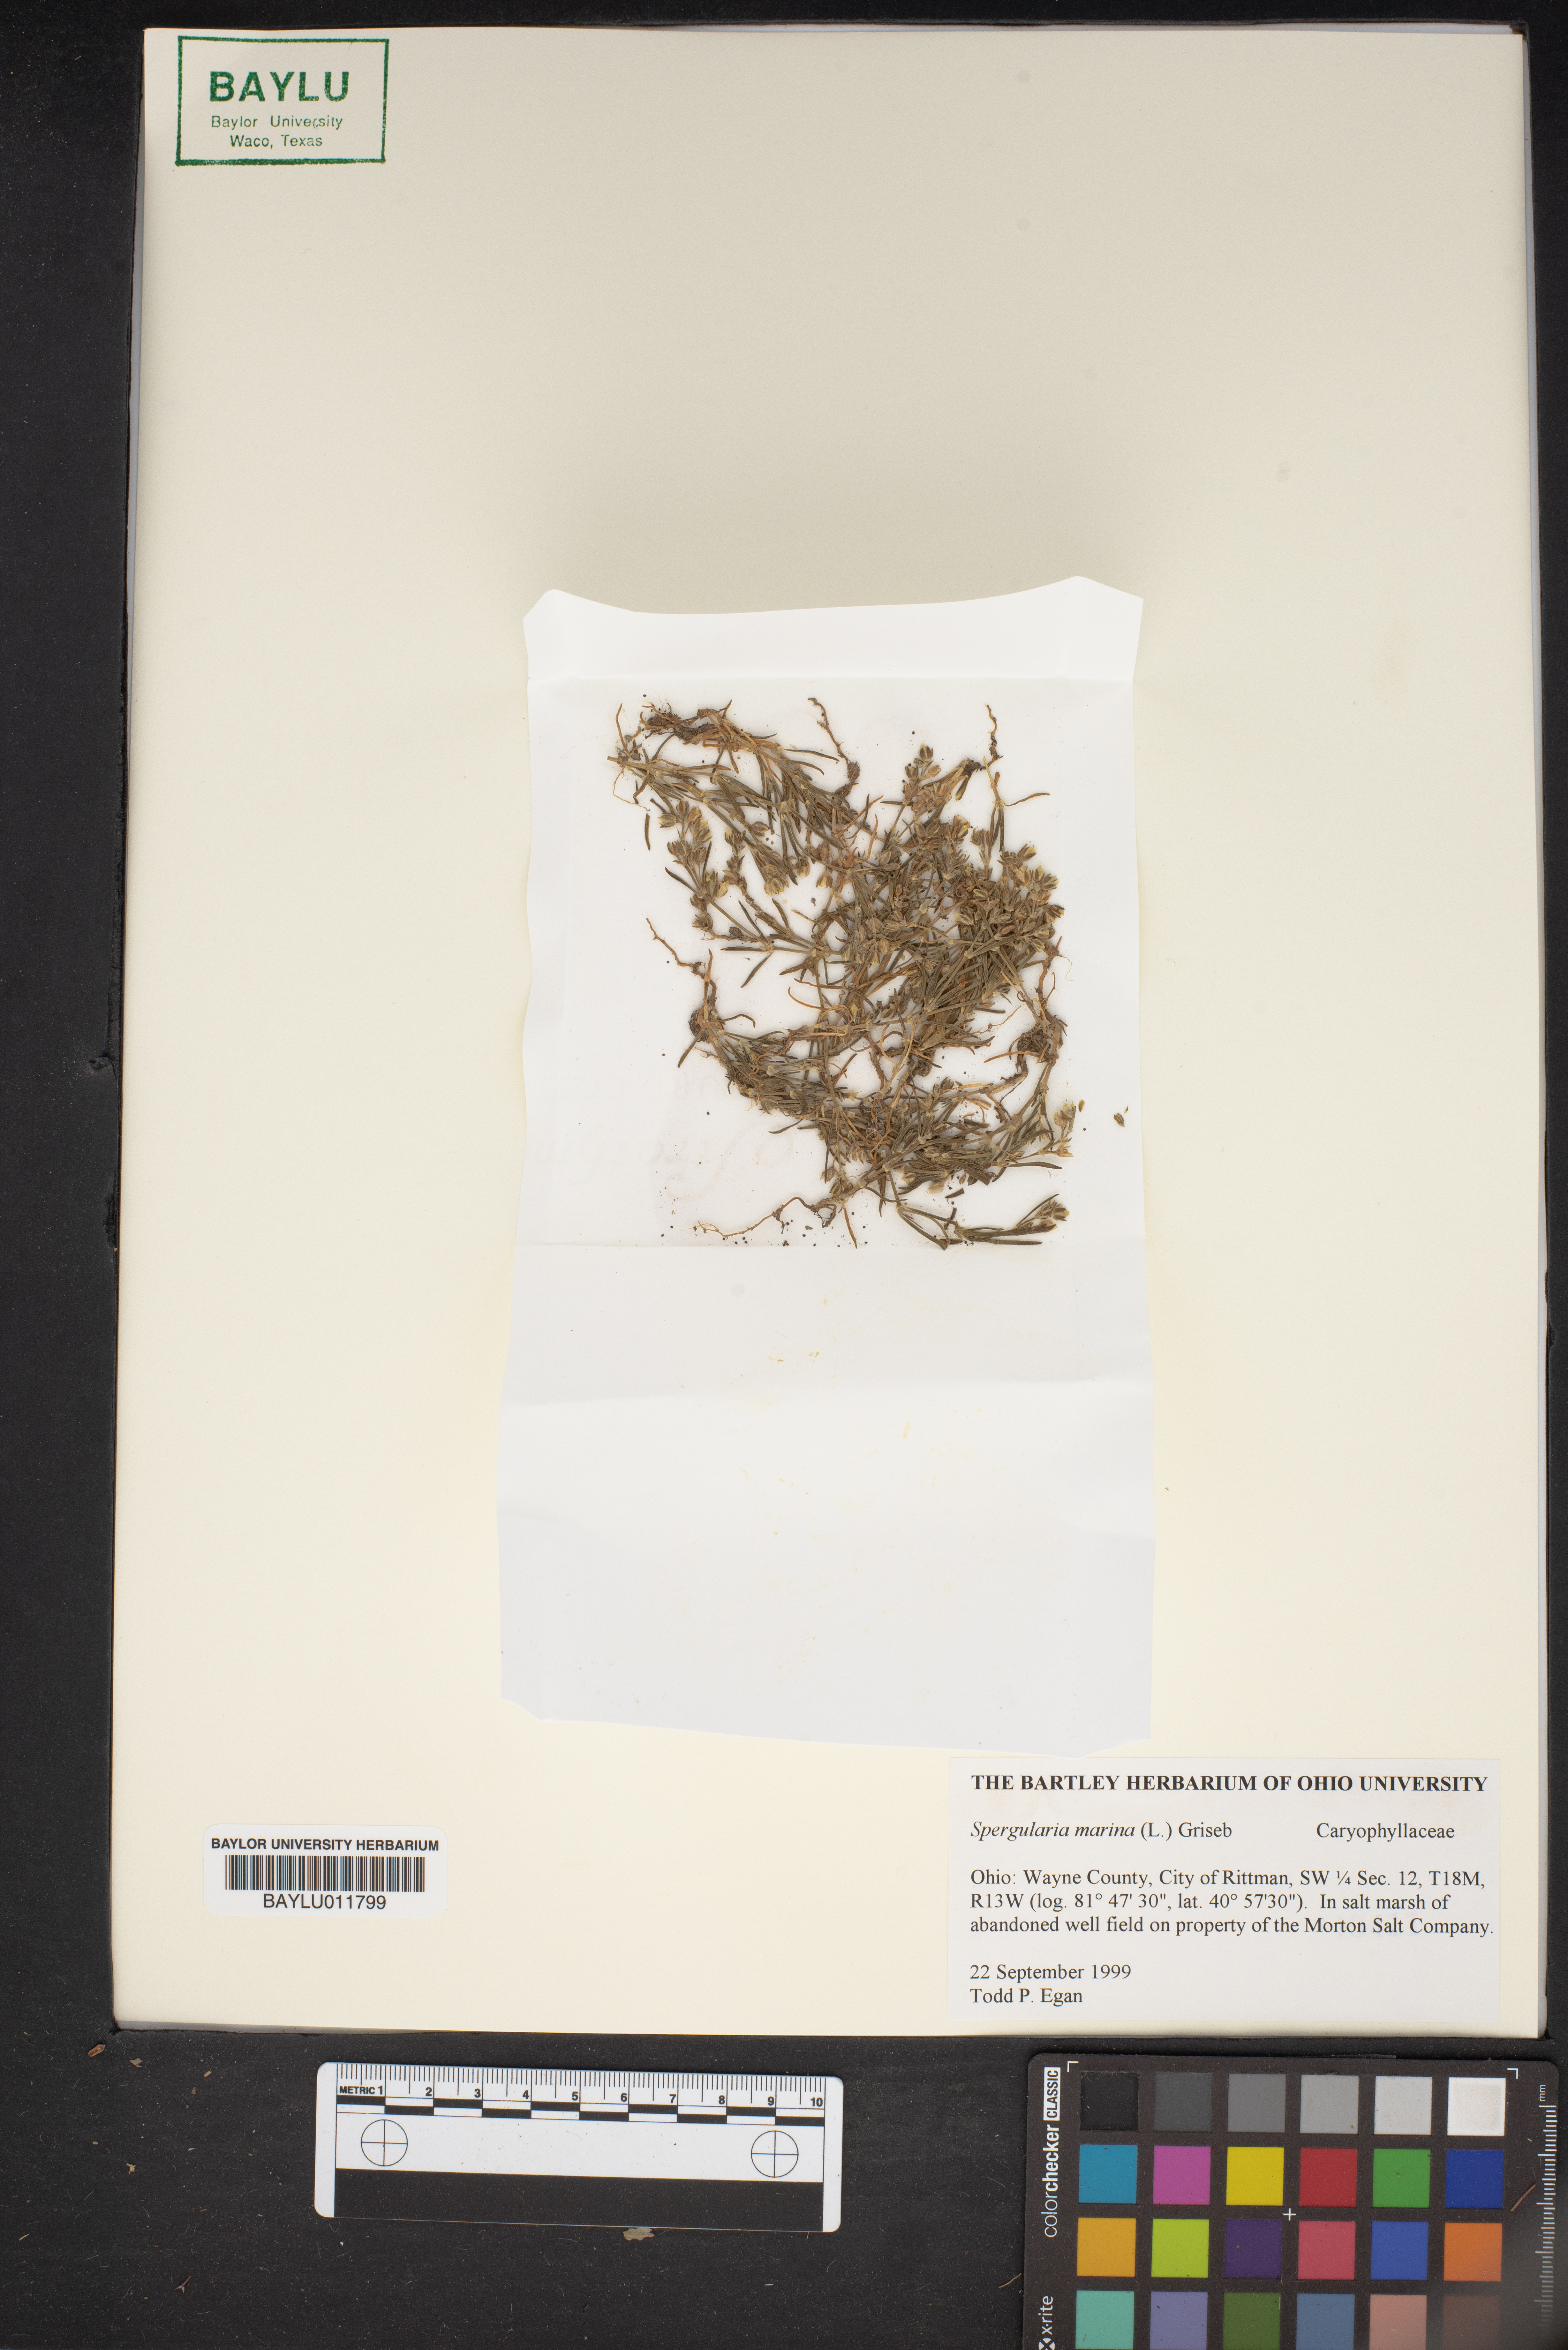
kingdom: Plantae
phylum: Tracheophyta
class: Magnoliopsida
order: Caryophyllales
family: Caryophyllaceae
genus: Spergularia
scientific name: Spergularia marina
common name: Lesser sea-spurrey
